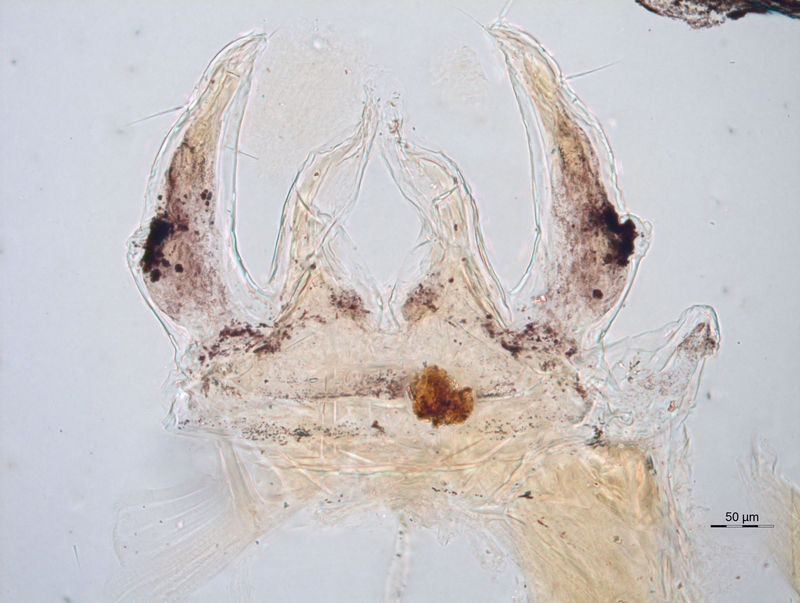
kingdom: Animalia
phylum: Arthropoda
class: Diplopoda
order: Chordeumatida
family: Anthroleucosomatidae
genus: Anamastigona
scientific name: Anamastigona hispidula
